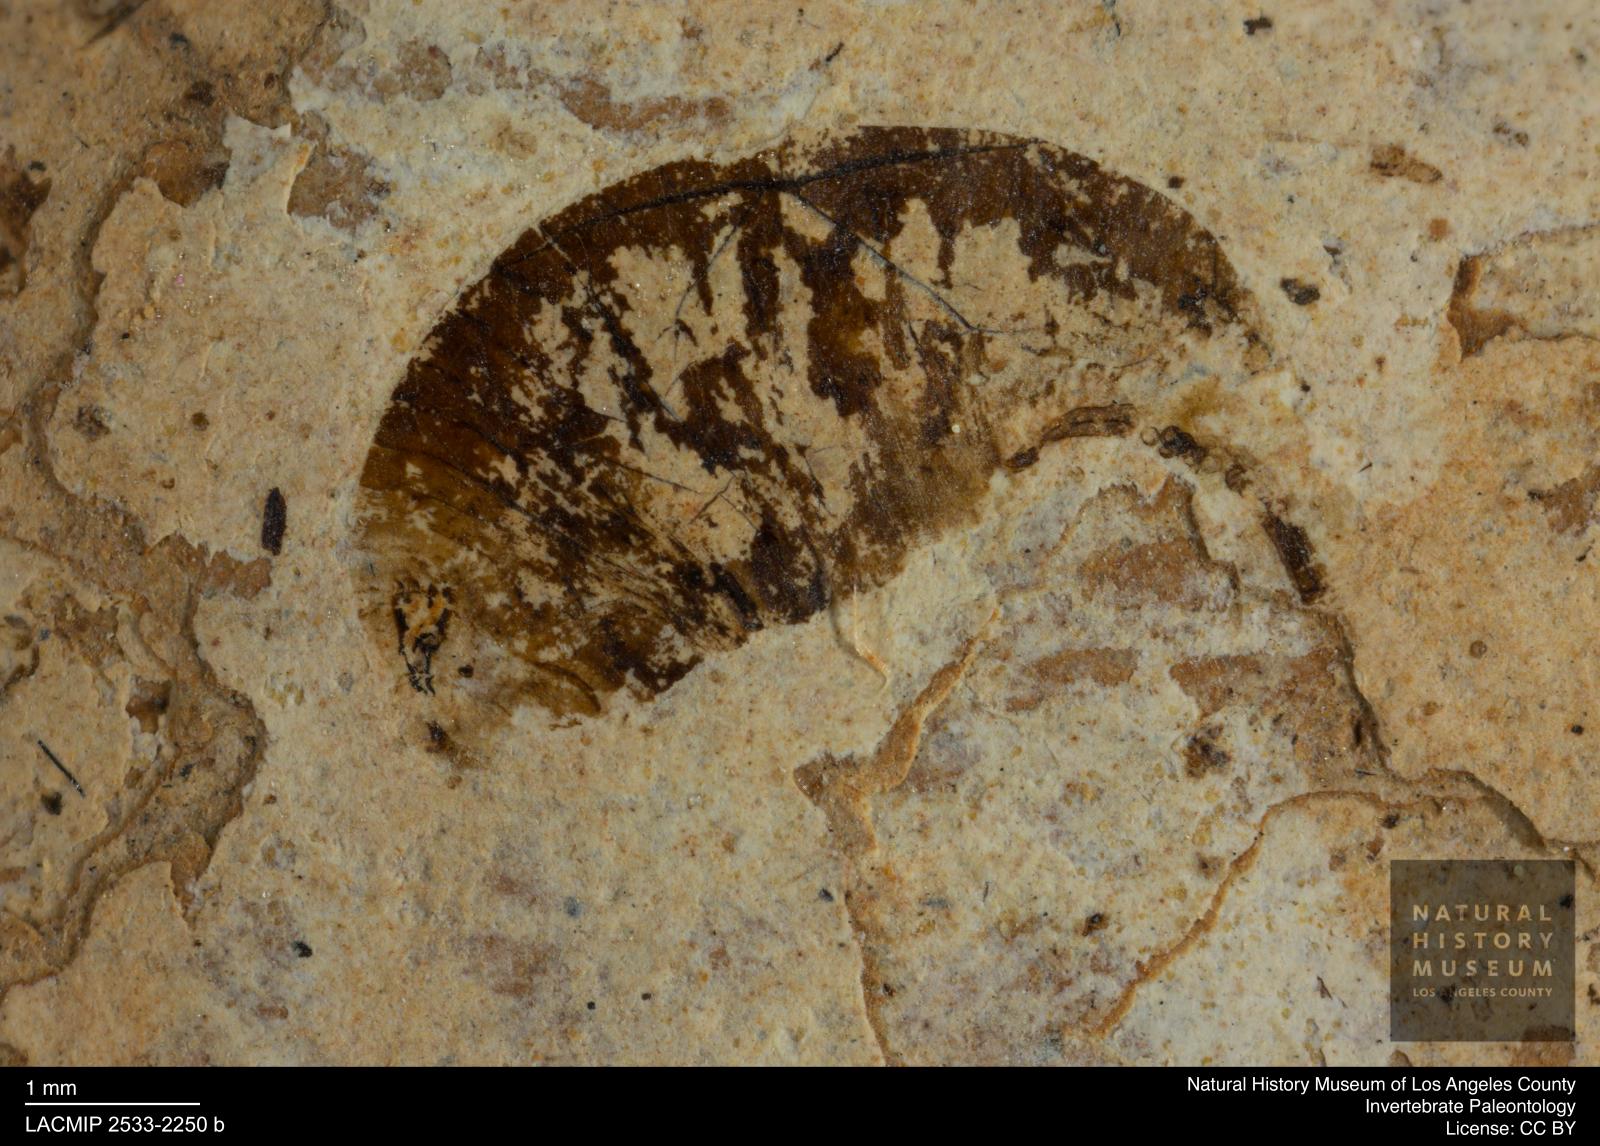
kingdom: Animalia
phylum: Arthropoda
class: Insecta
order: Diptera
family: Syrphidae
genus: Eristalis
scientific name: Eristalis
